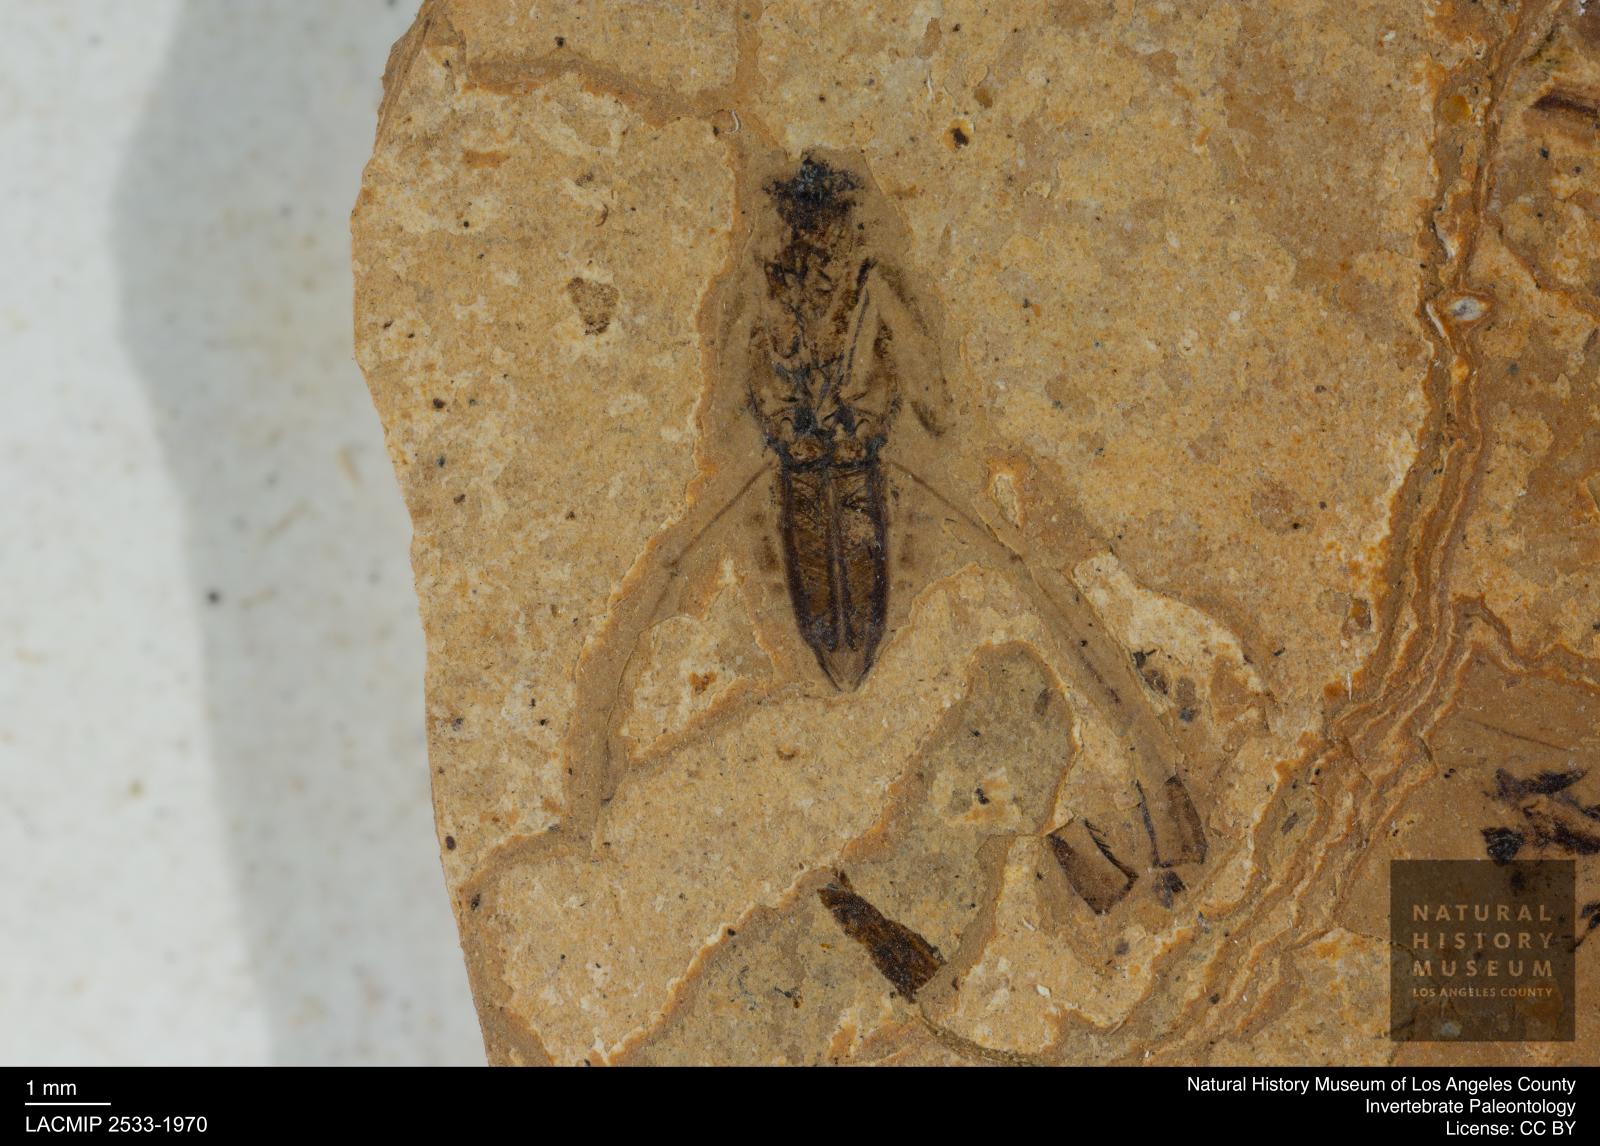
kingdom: Animalia
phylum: Arthropoda
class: Insecta
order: Hemiptera
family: Notonectidae
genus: Anisops
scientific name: Anisops Notonecta deichmuelleri
